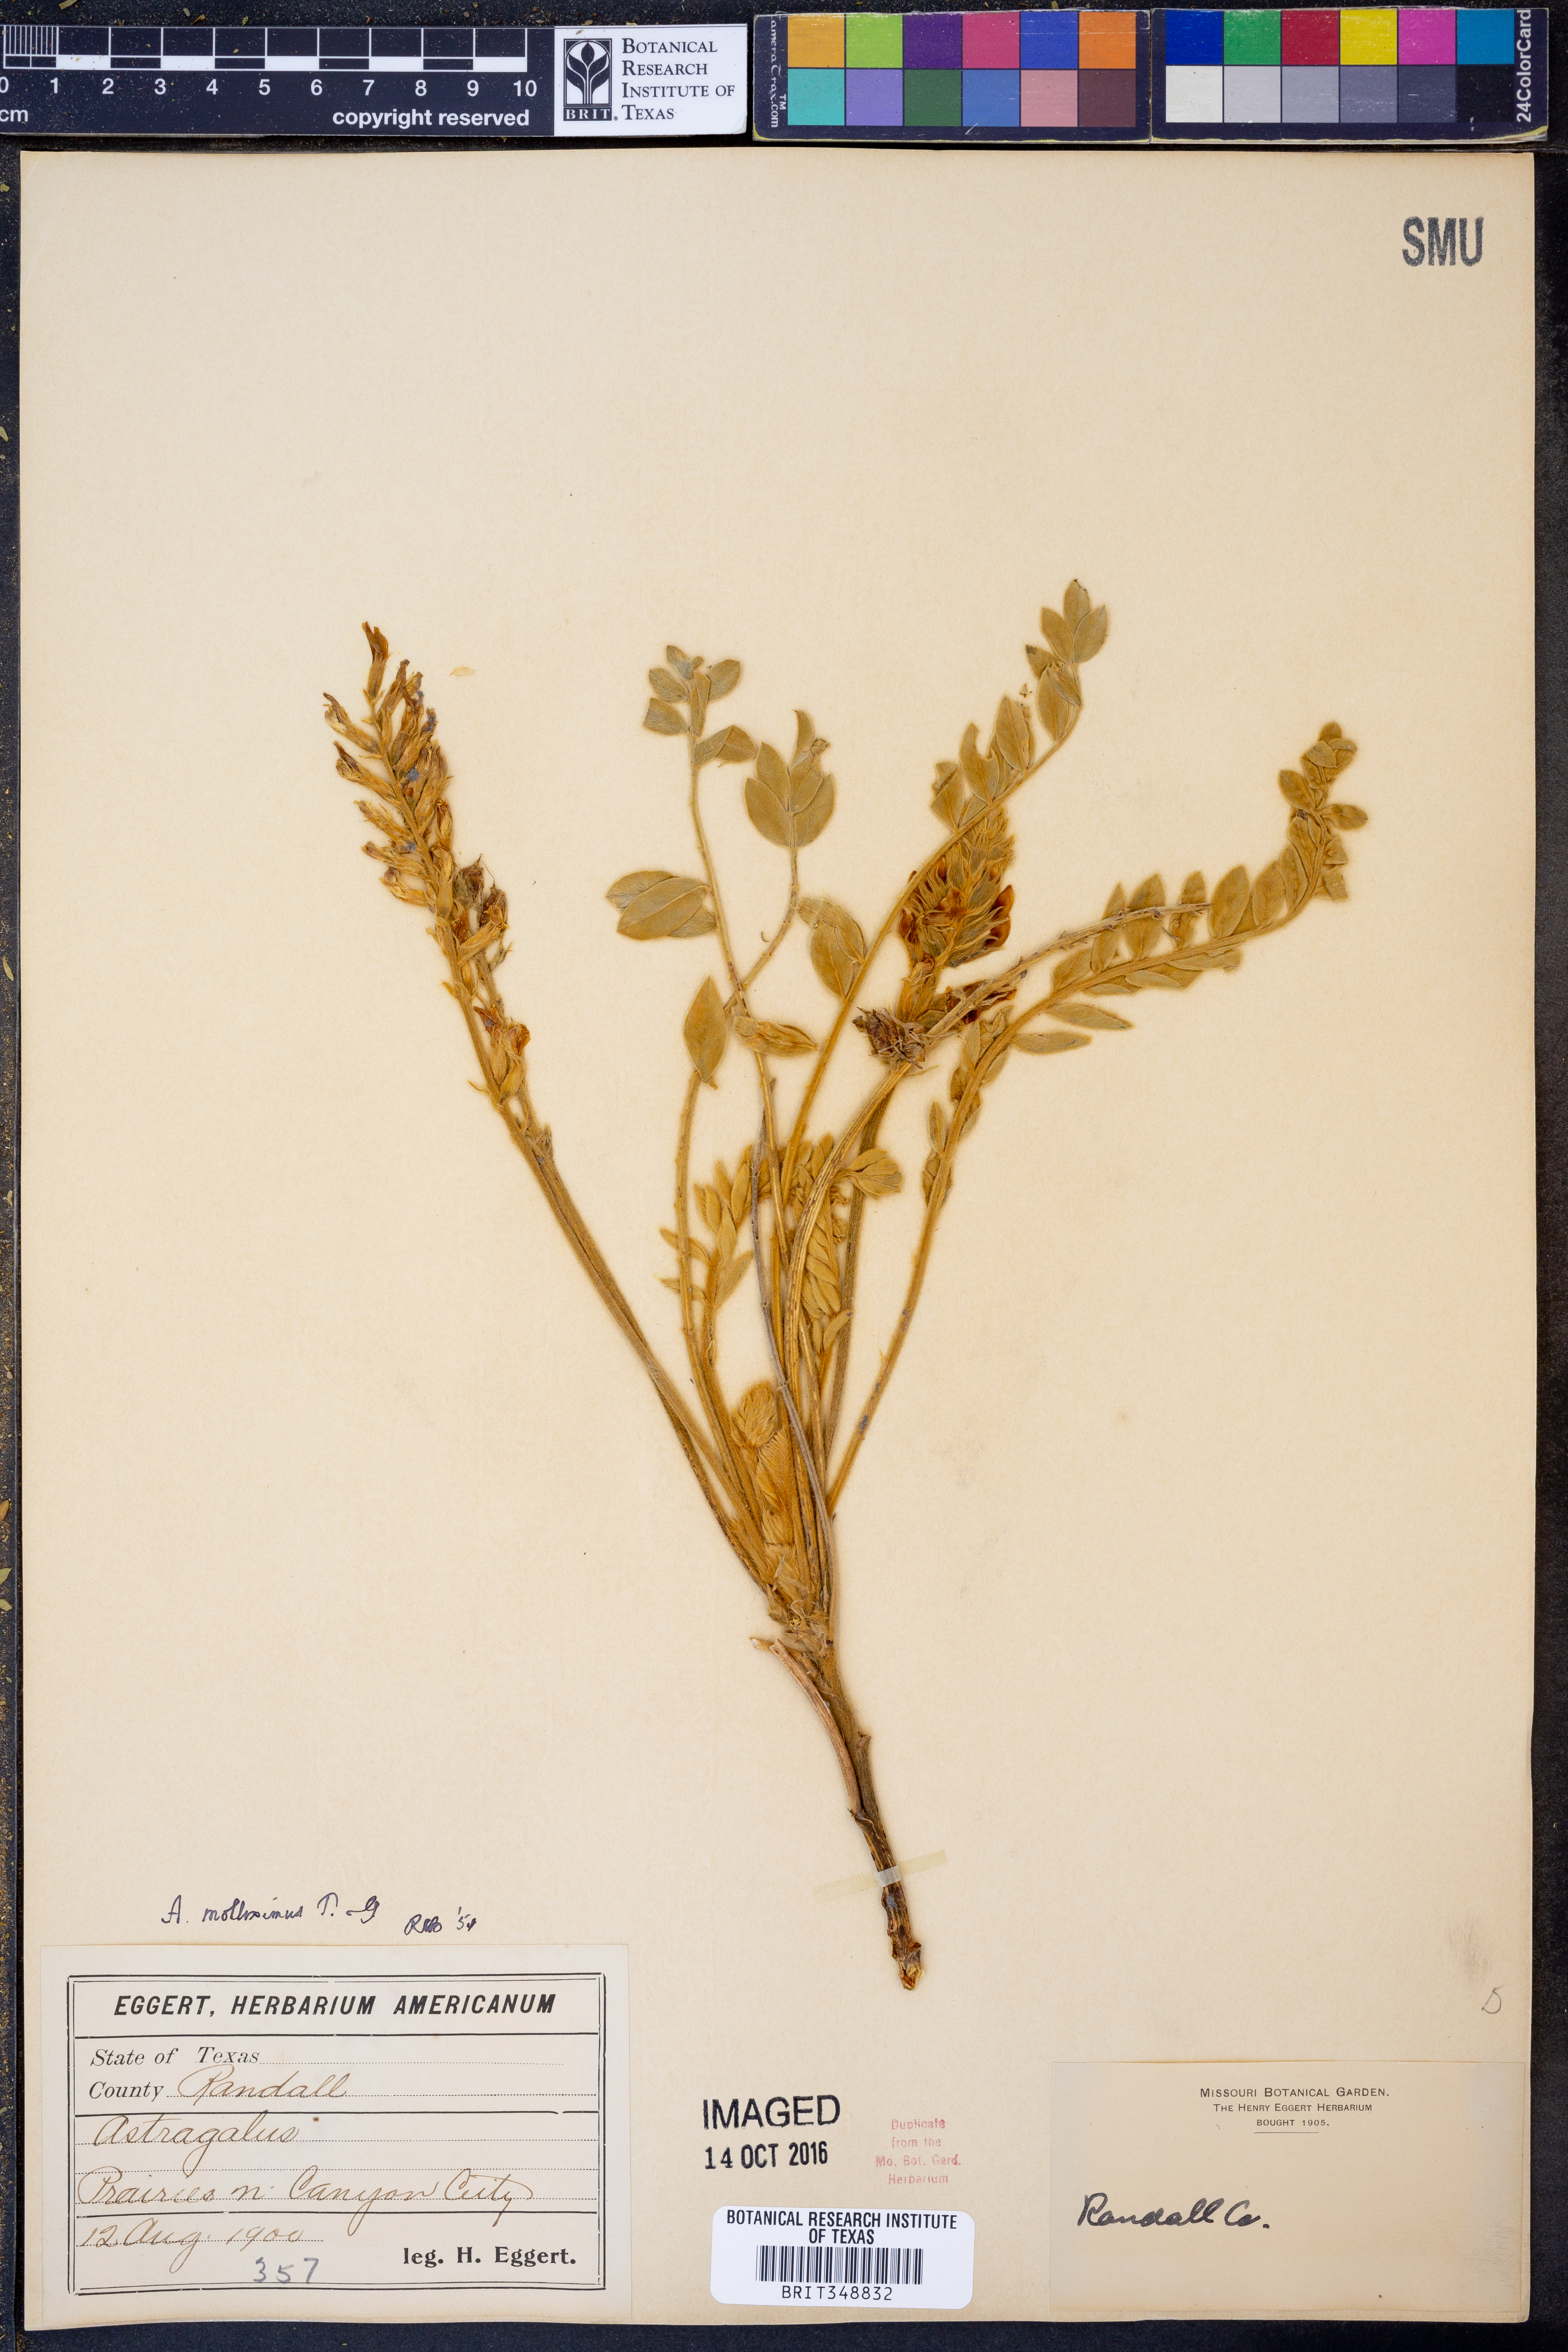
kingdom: Plantae
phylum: Tracheophyta
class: Magnoliopsida
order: Fabales
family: Fabaceae
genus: Astragalus
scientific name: Astragalus mollissimus
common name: Woolly locoweed
